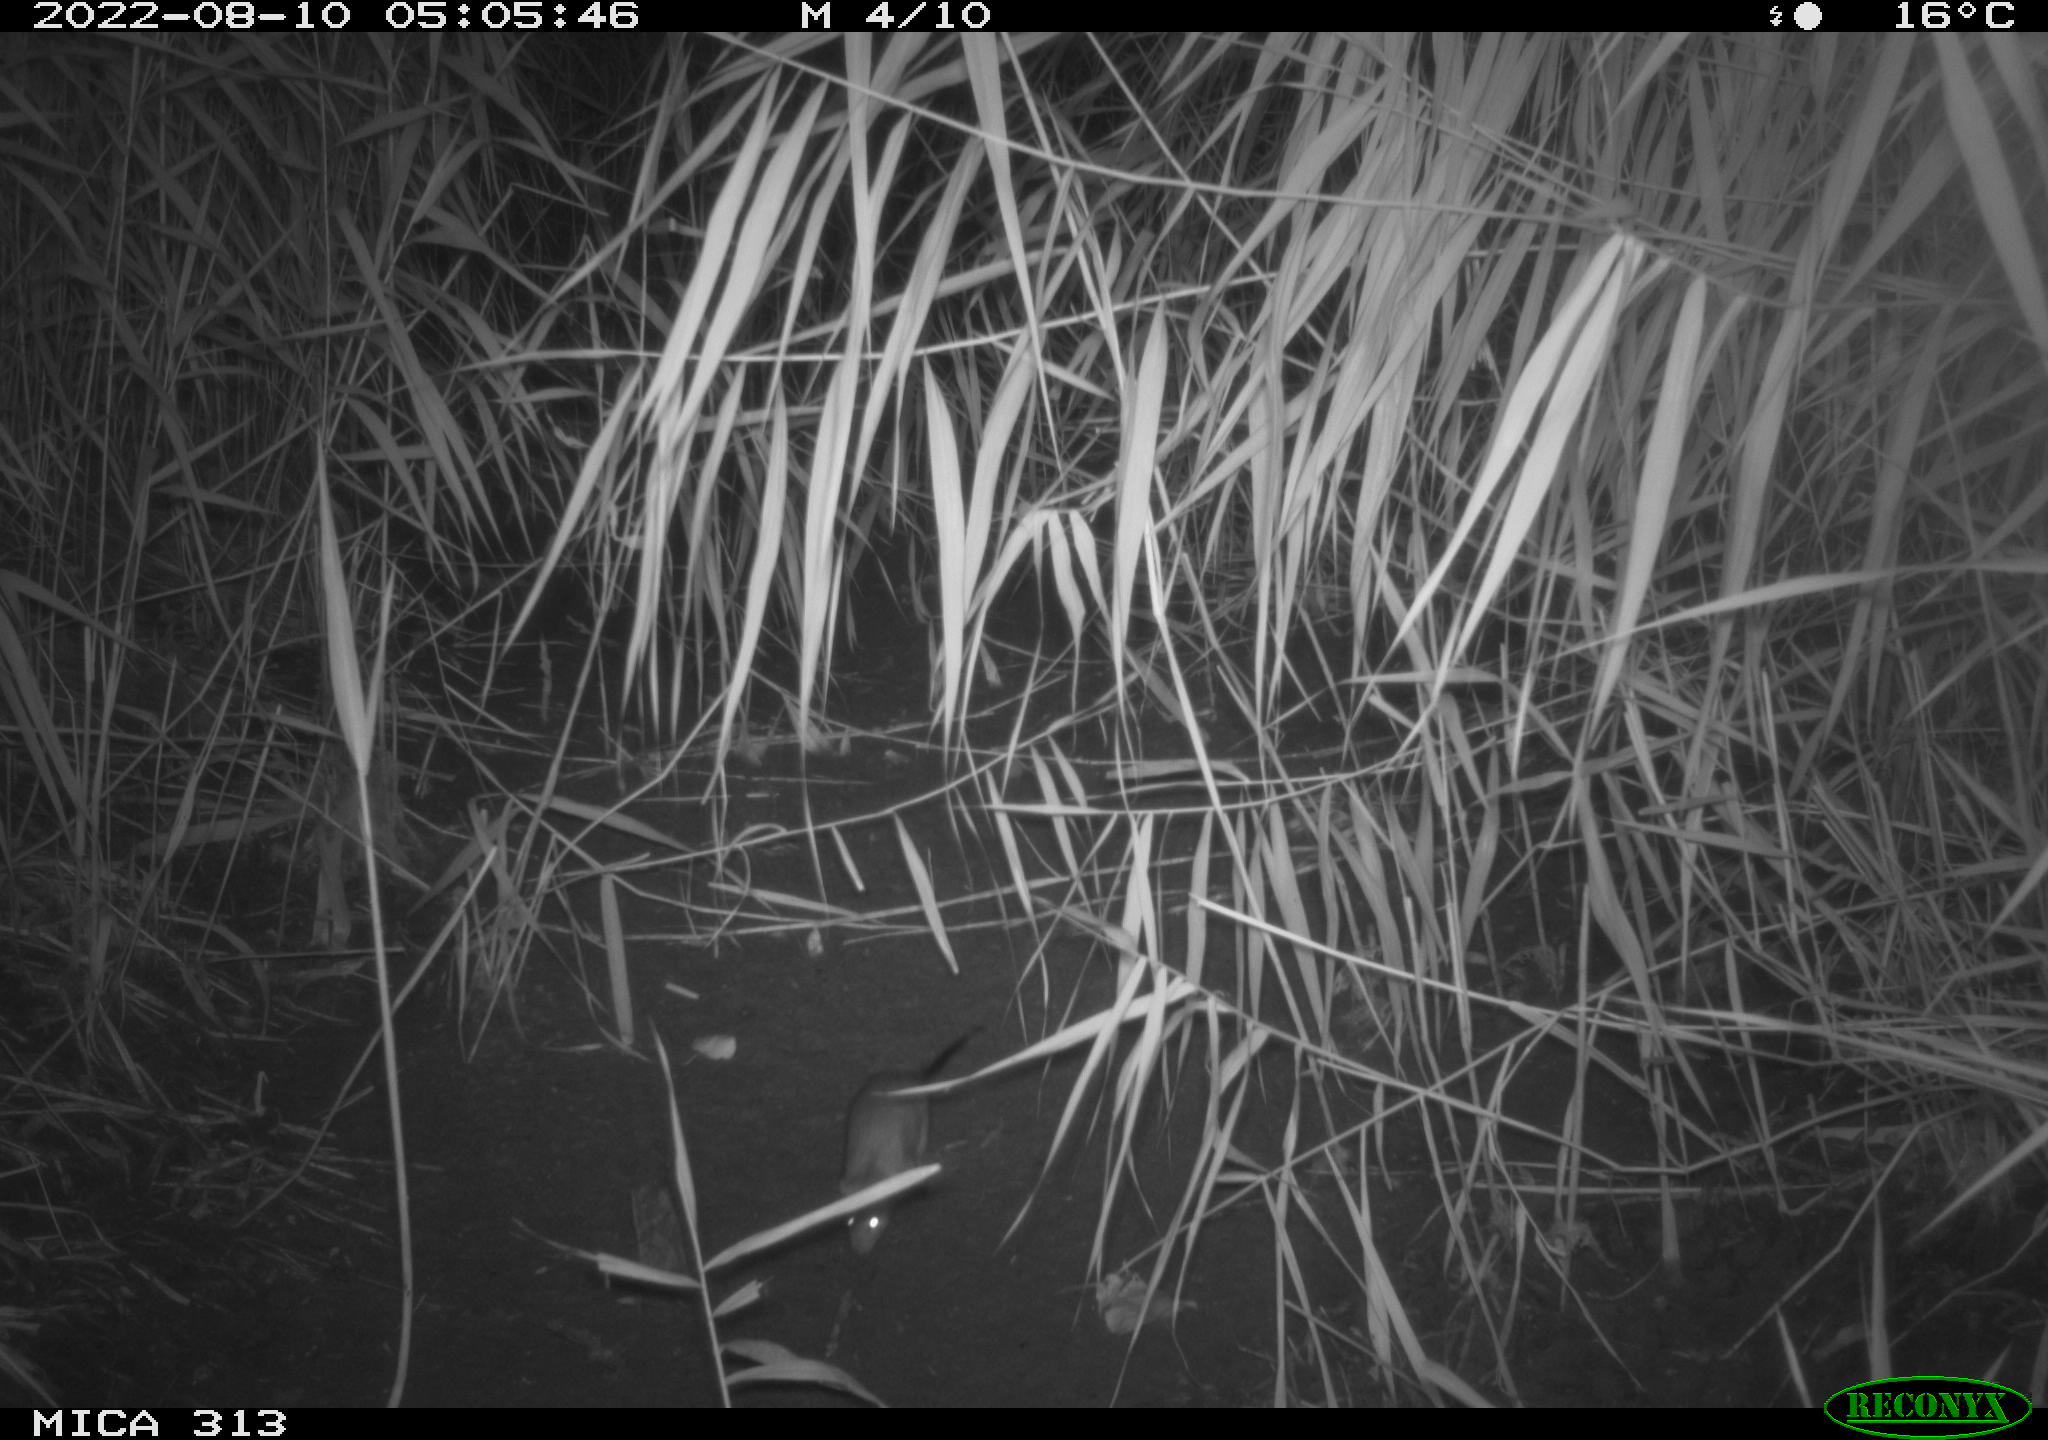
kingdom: Animalia
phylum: Chordata
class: Mammalia
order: Rodentia
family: Muridae
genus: Rattus
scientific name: Rattus norvegicus
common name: Brown rat
